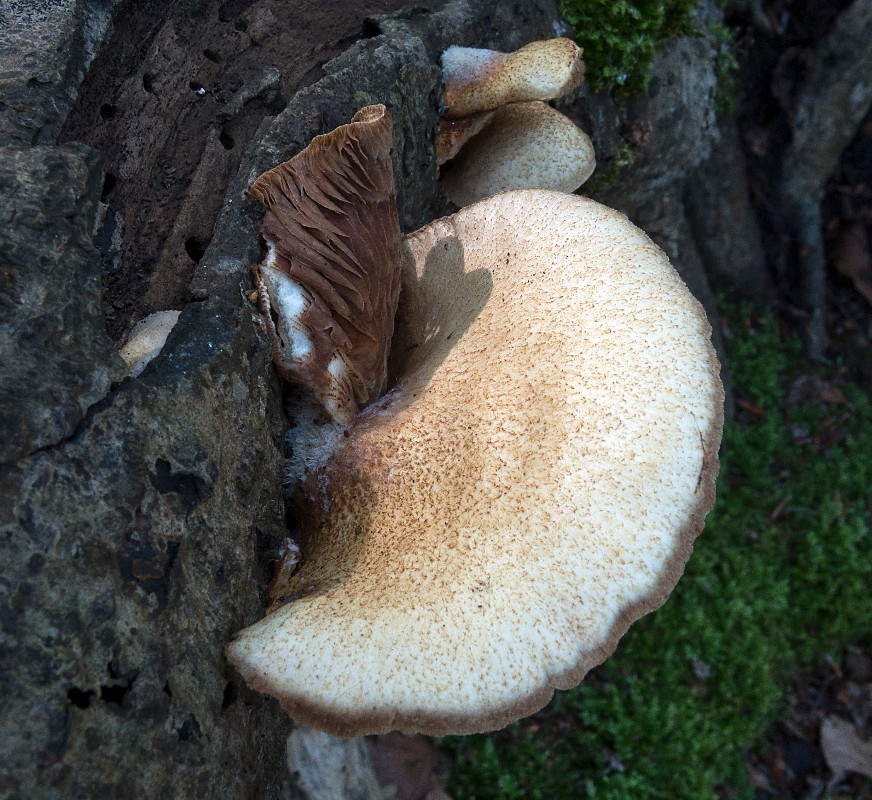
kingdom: Fungi
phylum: Basidiomycota
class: Agaricomycetes
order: Agaricales
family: Crepidotaceae
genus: Crepidotus
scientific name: Crepidotus calolepis
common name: småskællet muslingesvamp
